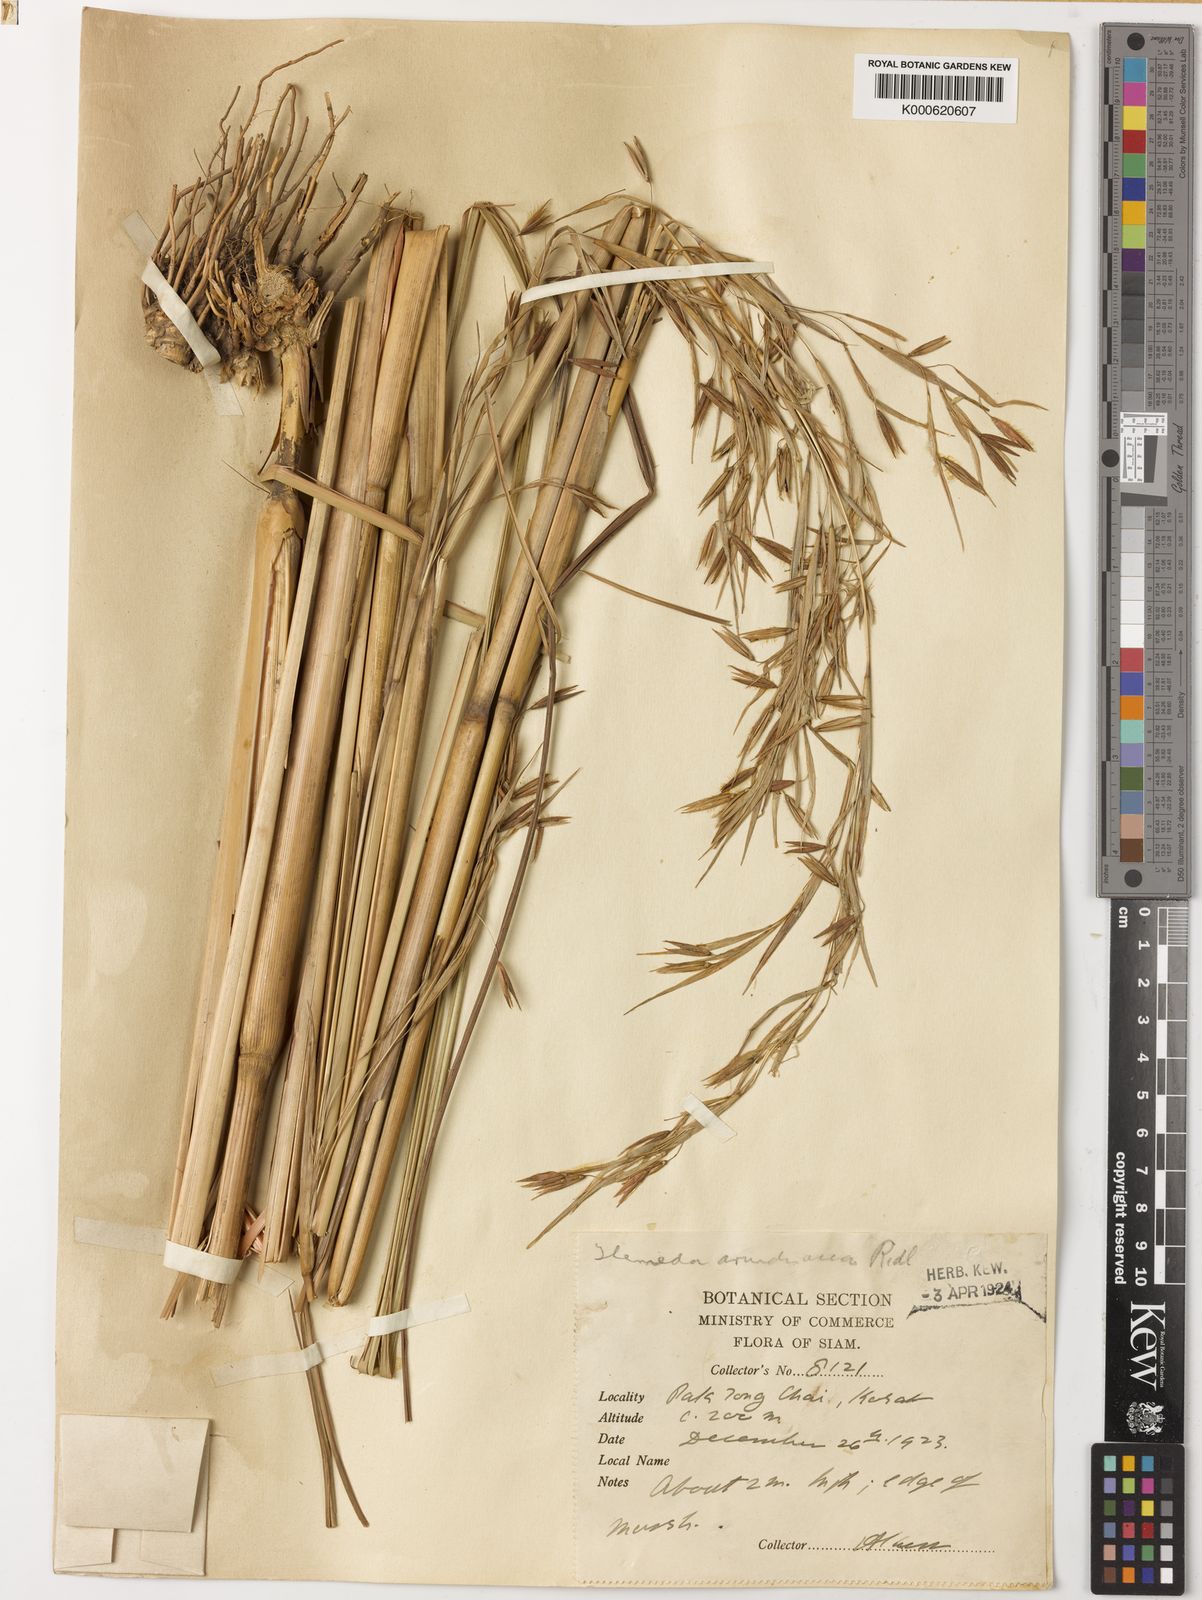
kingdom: Plantae
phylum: Tracheophyta
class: Liliopsida
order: Poales
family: Poaceae
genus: Themeda
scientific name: Themeda arundinacea
